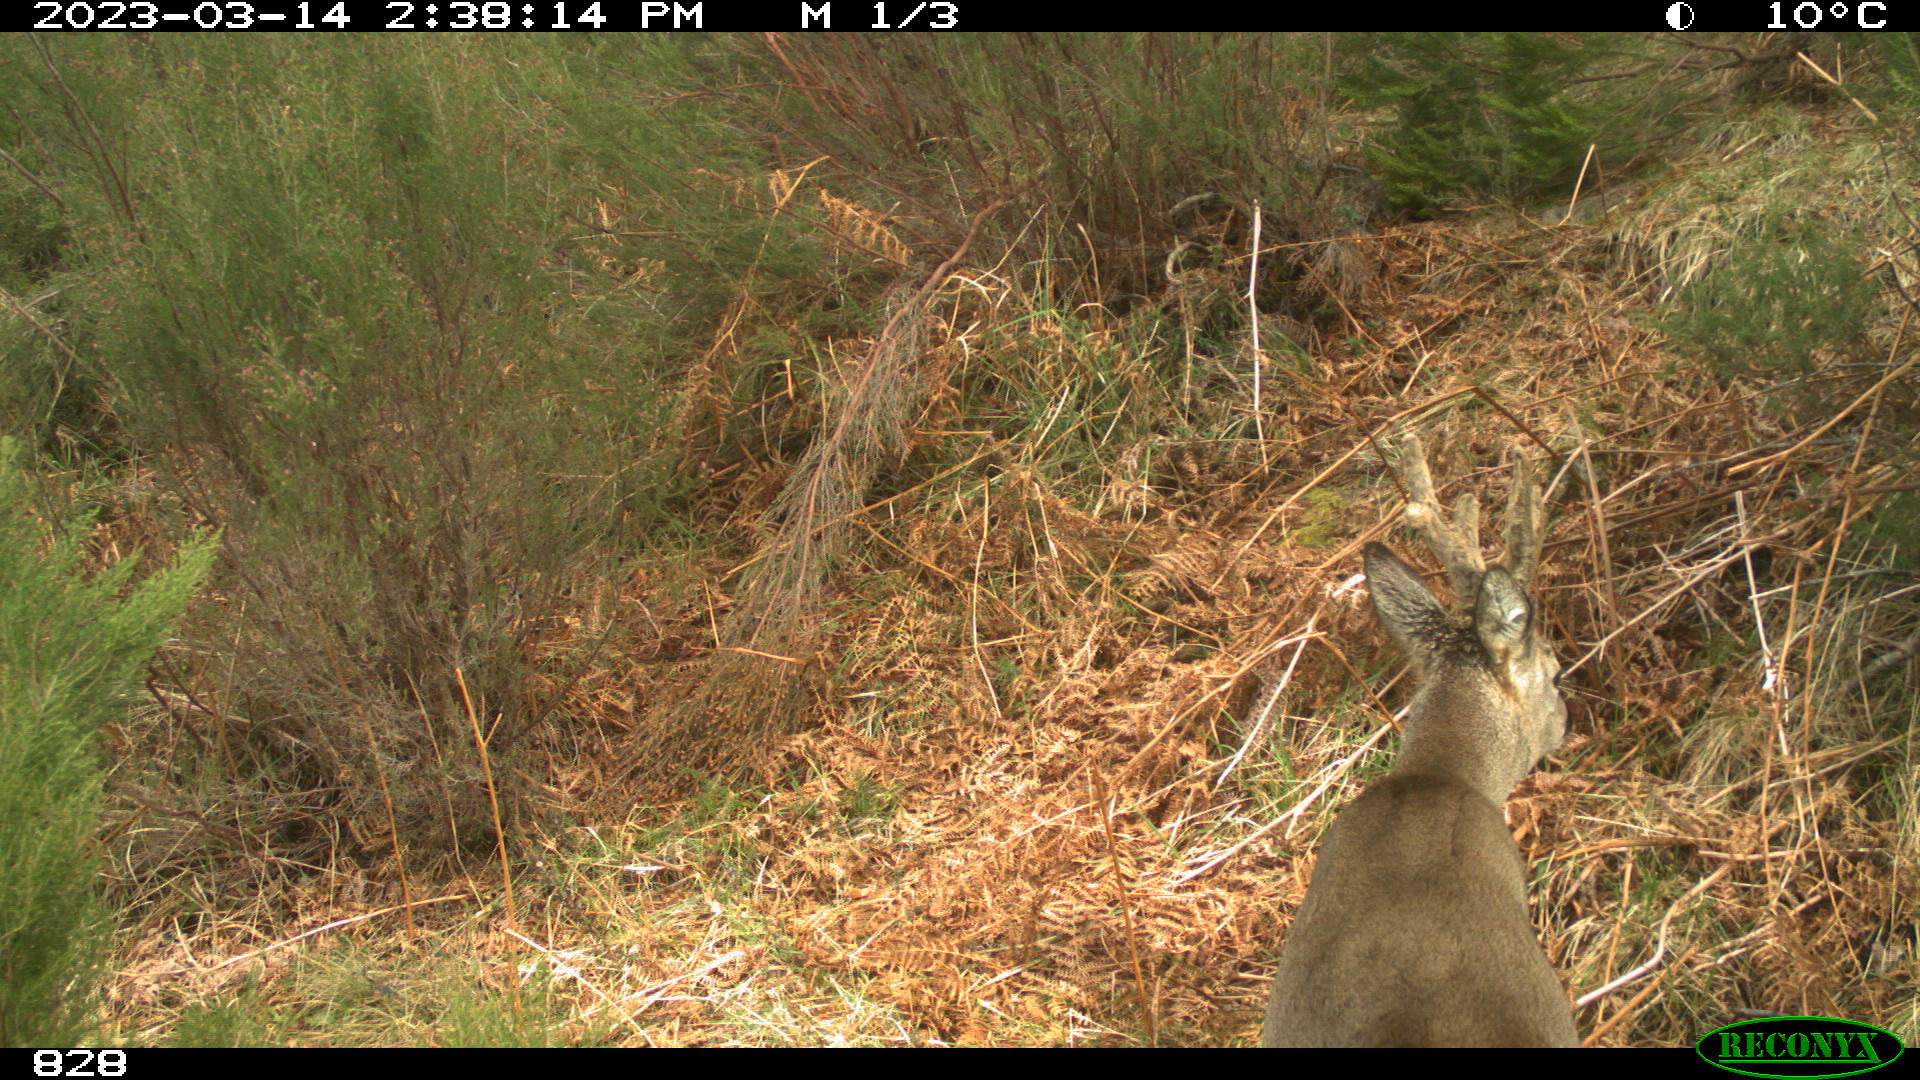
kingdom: Animalia
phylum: Chordata
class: Mammalia
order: Artiodactyla
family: Cervidae
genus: Capreolus
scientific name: Capreolus capreolus
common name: Western roe deer
